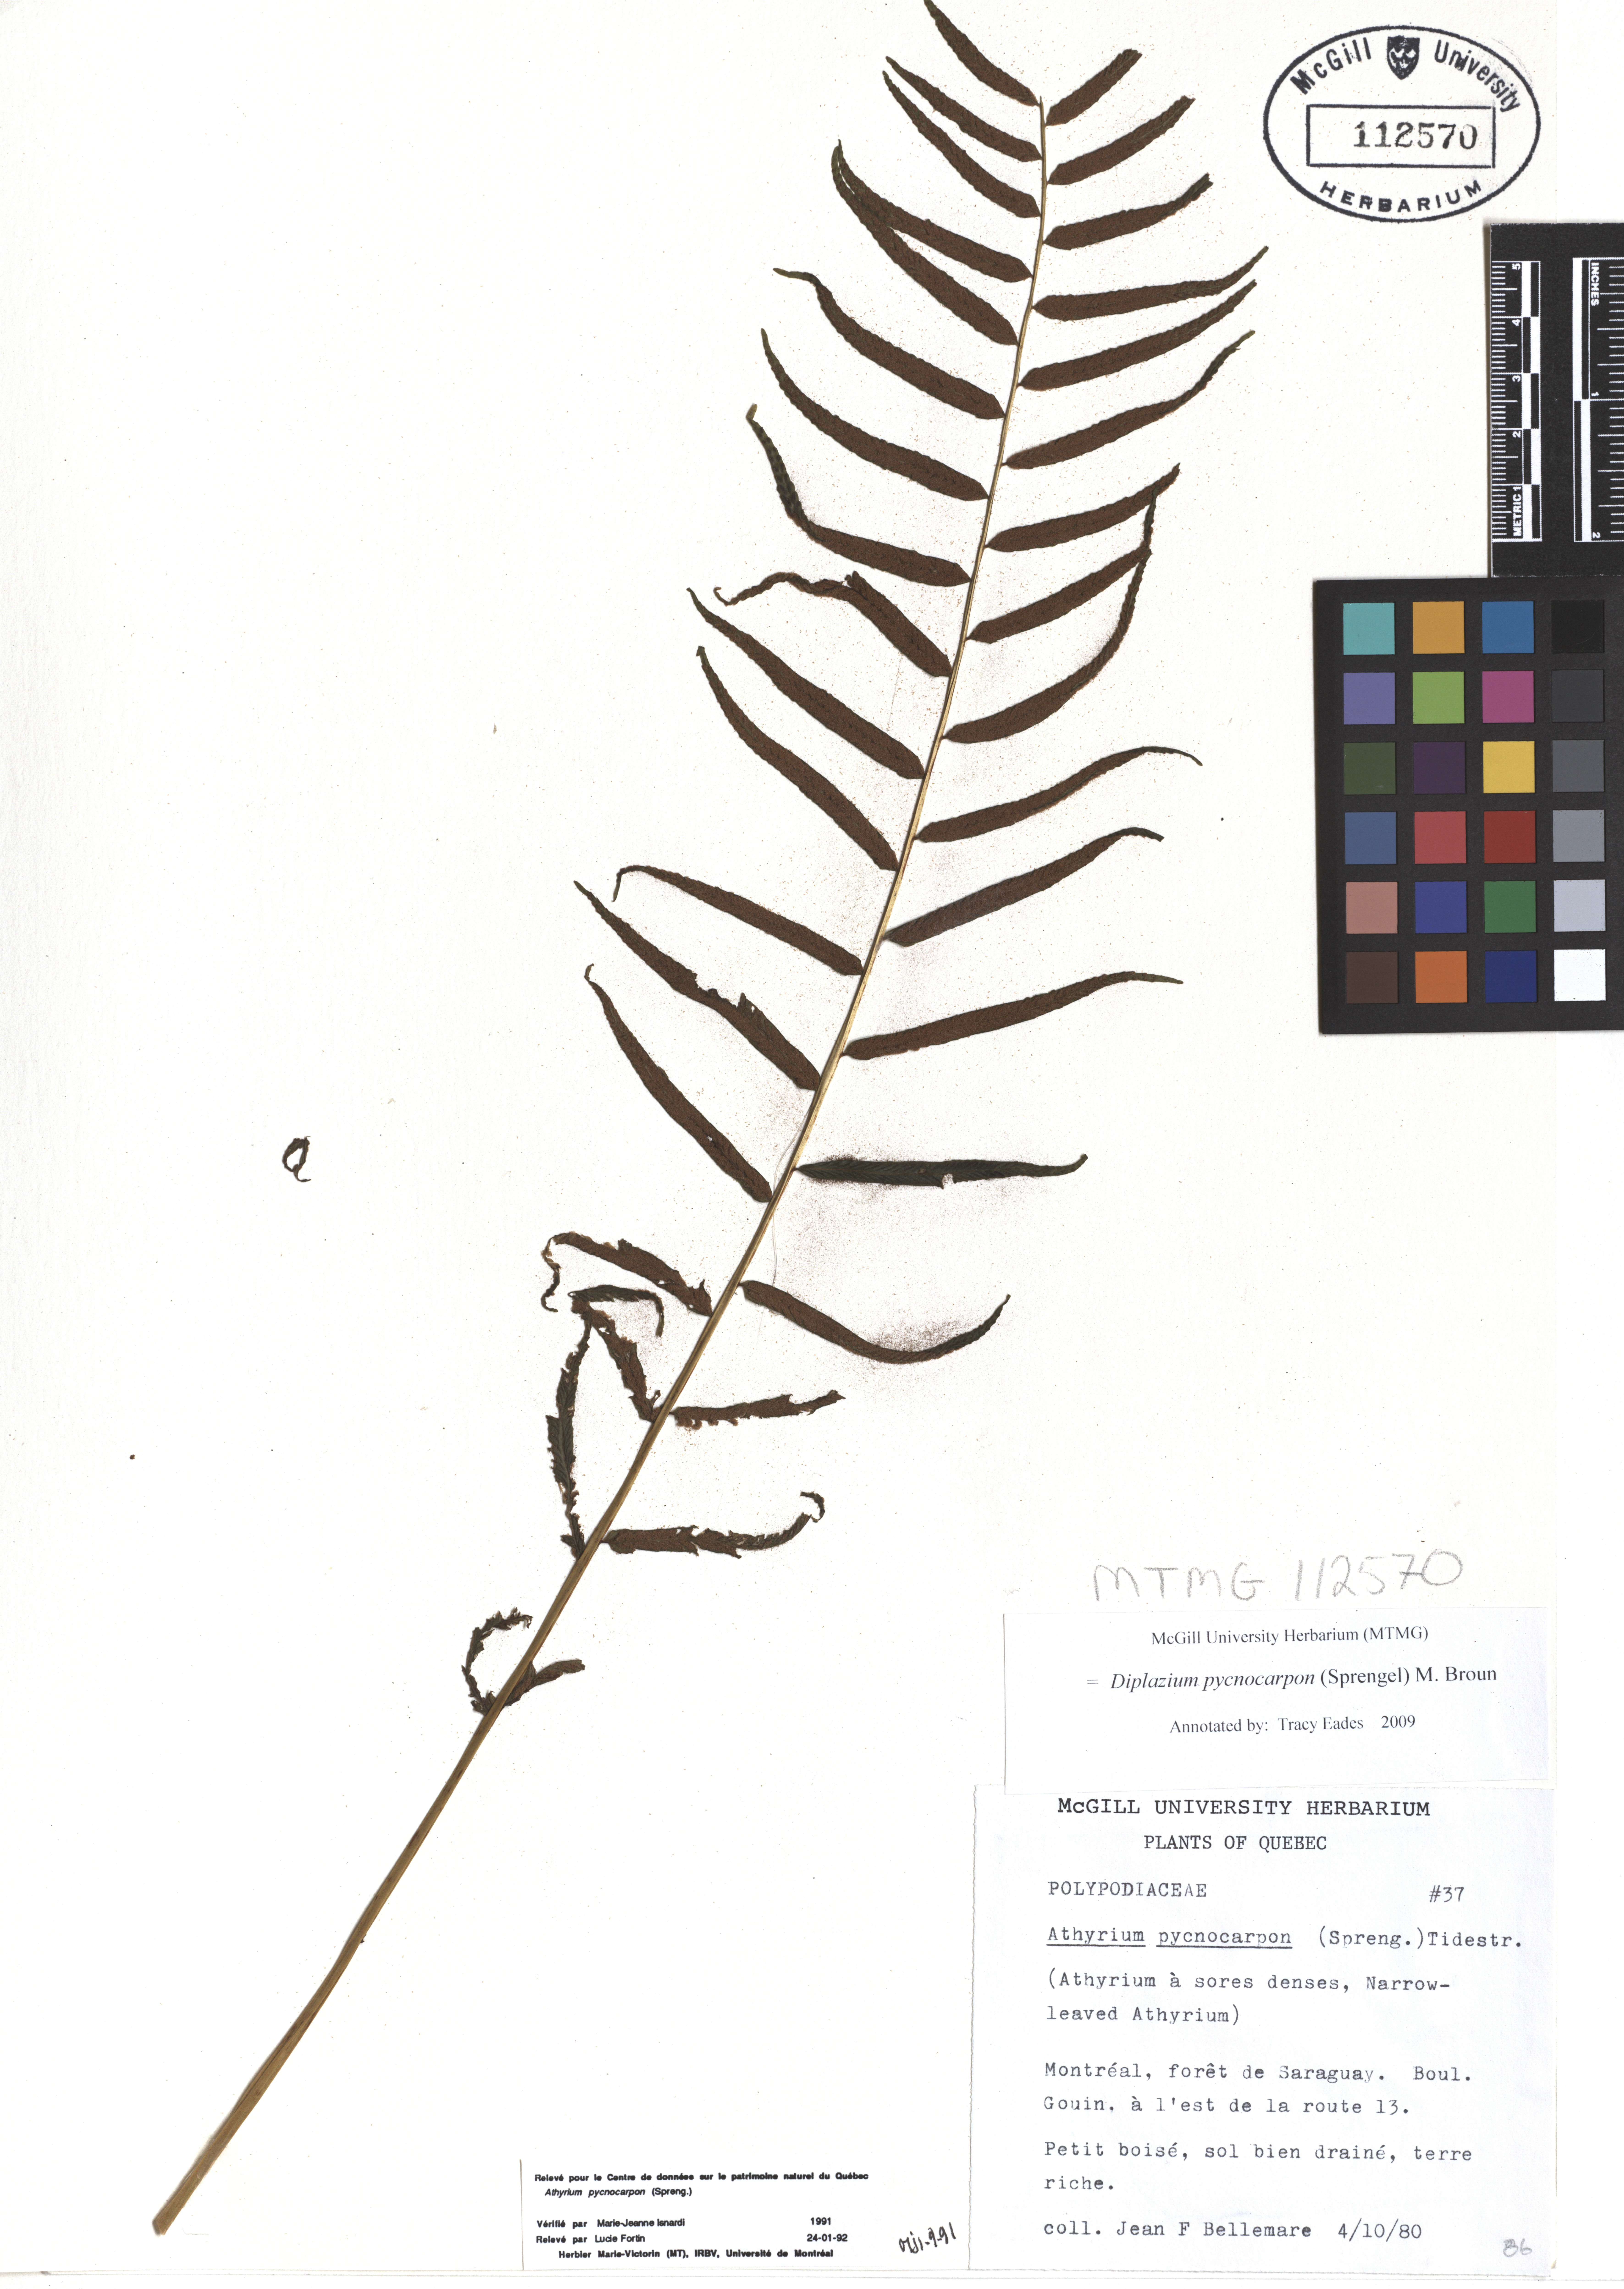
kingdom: Plantae
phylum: Tracheophyta
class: Polypodiopsida
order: Polypodiales
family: Diplaziopsidaceae
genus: Homalosorus
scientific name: Homalosorus pycnocarpos
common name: Glade fern
